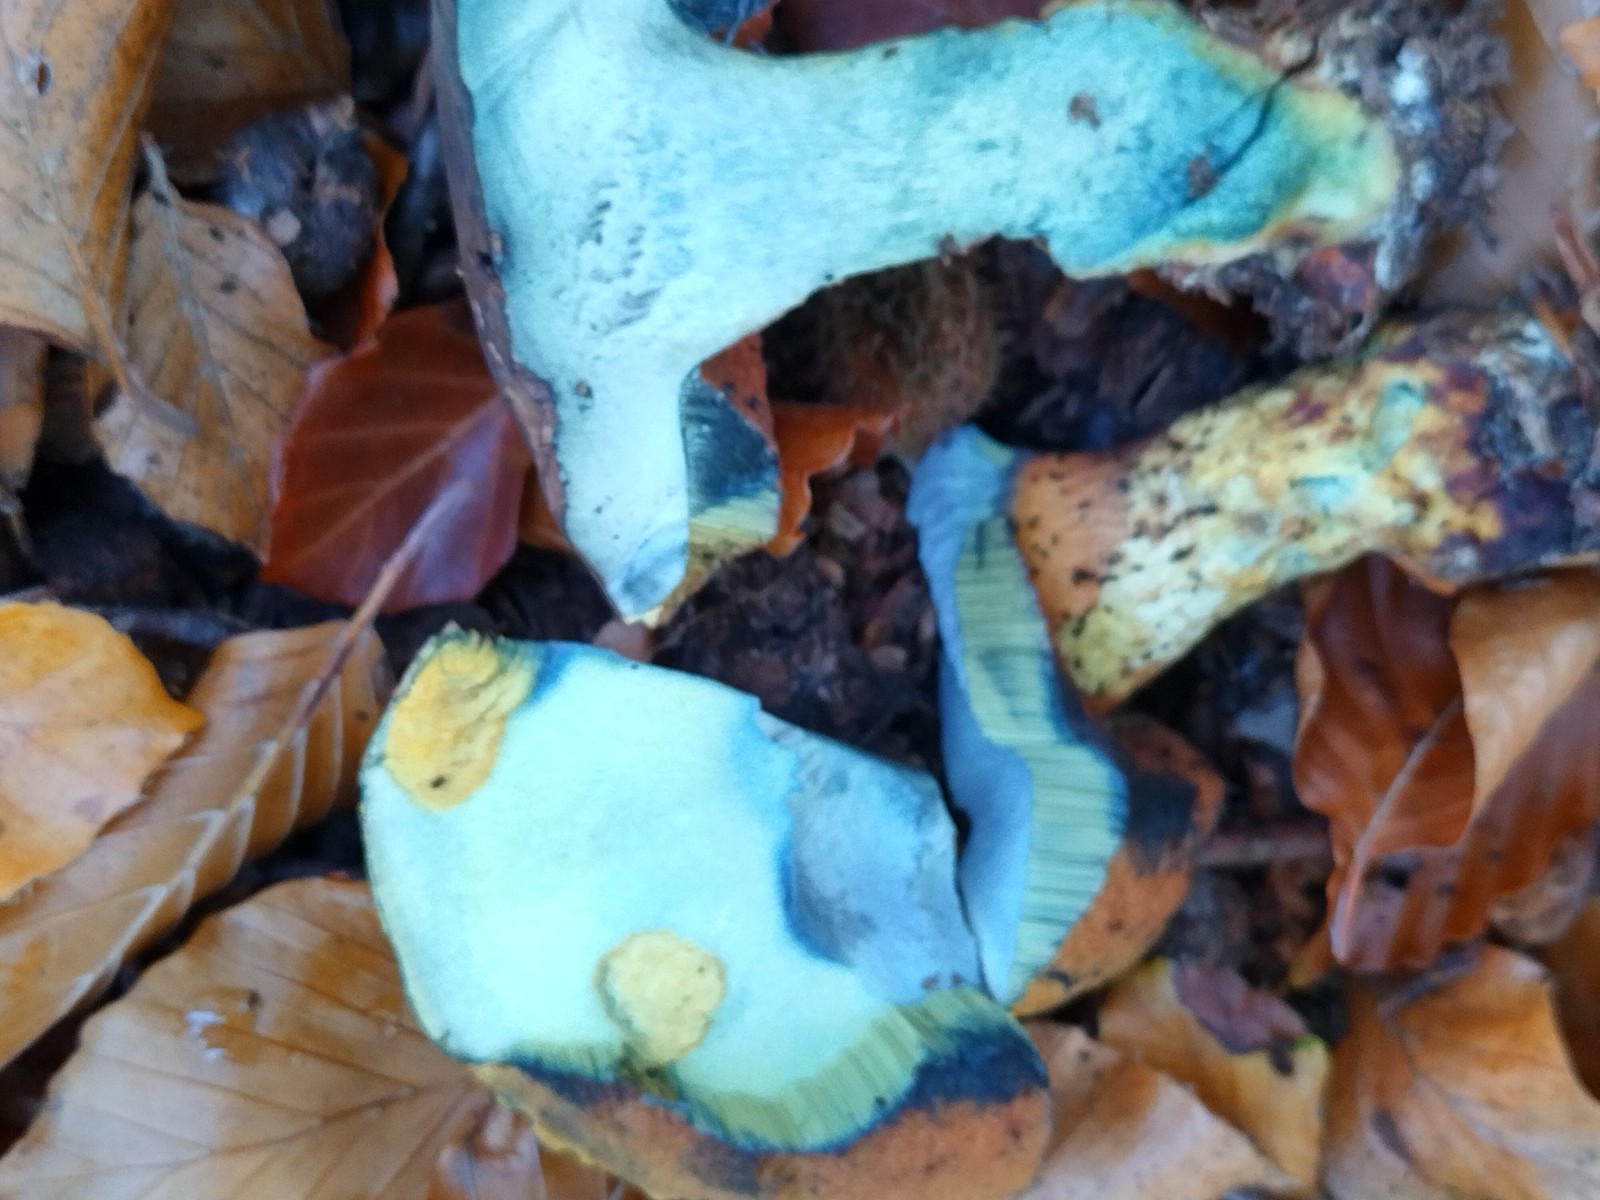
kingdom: Fungi
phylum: Basidiomycota
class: Agaricomycetes
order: Boletales
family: Boletaceae
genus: Neoboletus
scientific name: Neoboletus erythropus
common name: punktstokket indigorørhat
